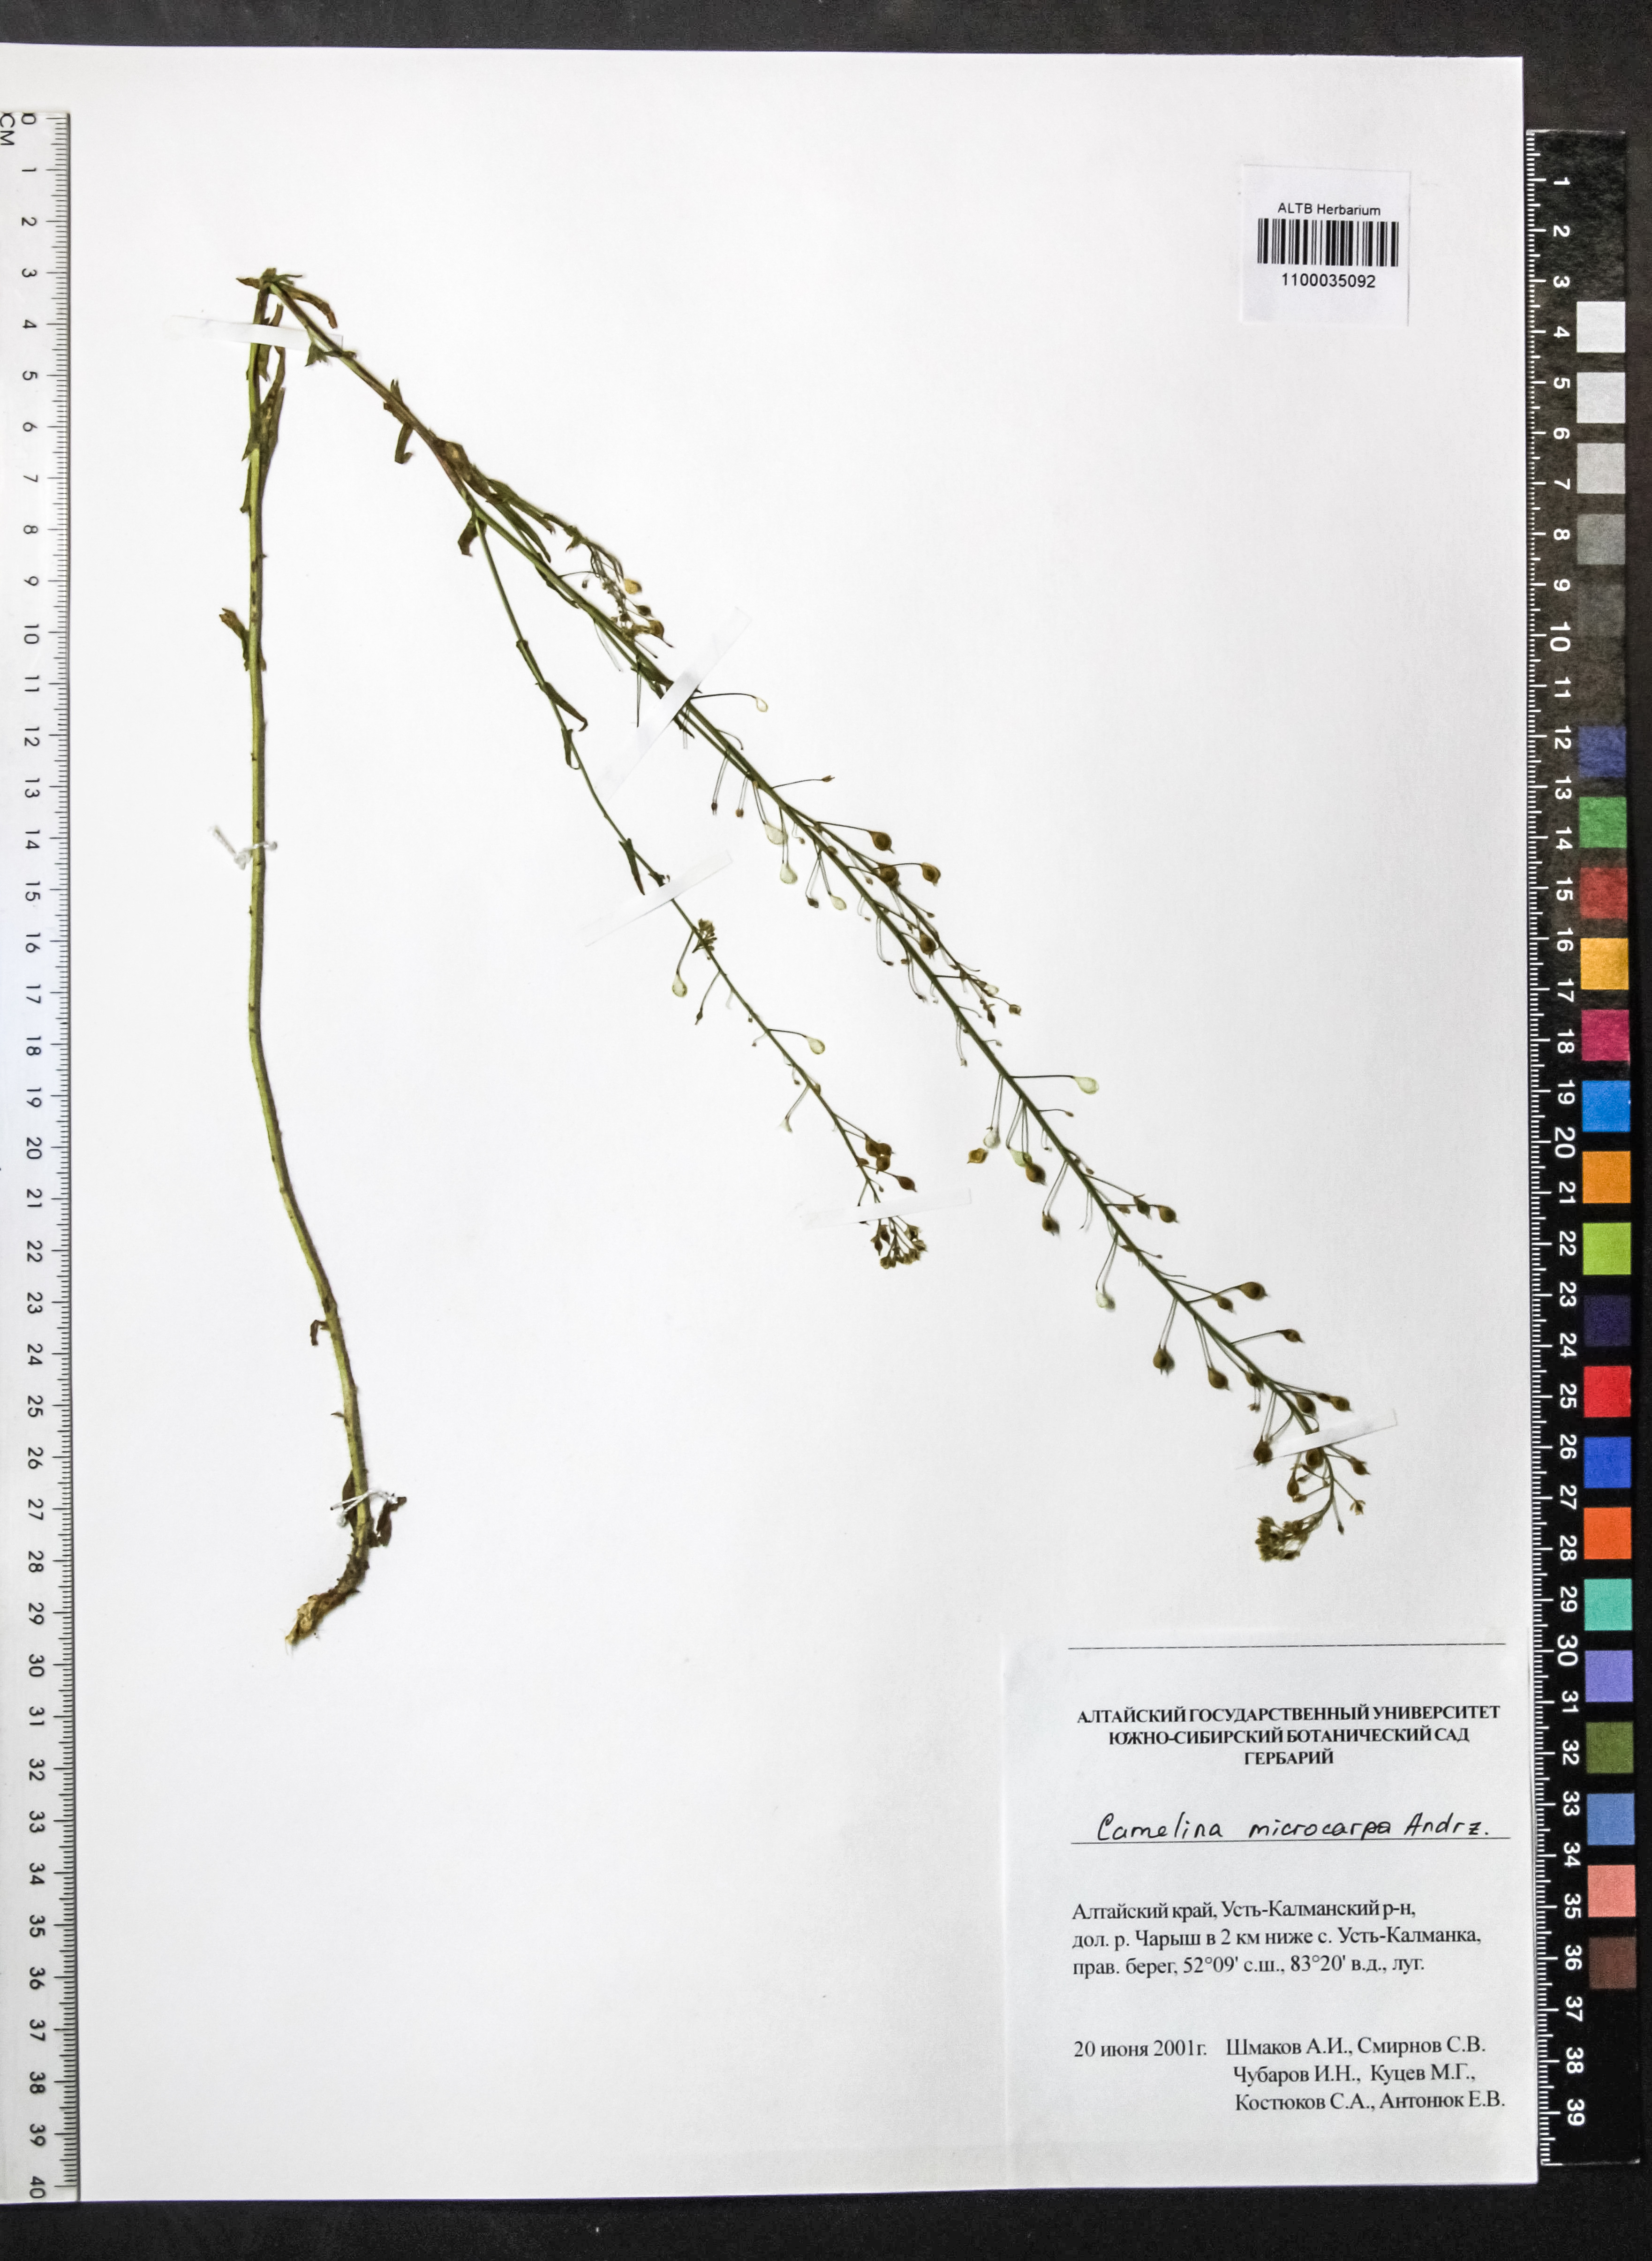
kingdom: Plantae
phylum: Tracheophyta
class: Magnoliopsida
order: Brassicales
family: Brassicaceae
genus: Camelina
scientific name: Camelina microcarpa
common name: Lesser gold-of-pleasure
